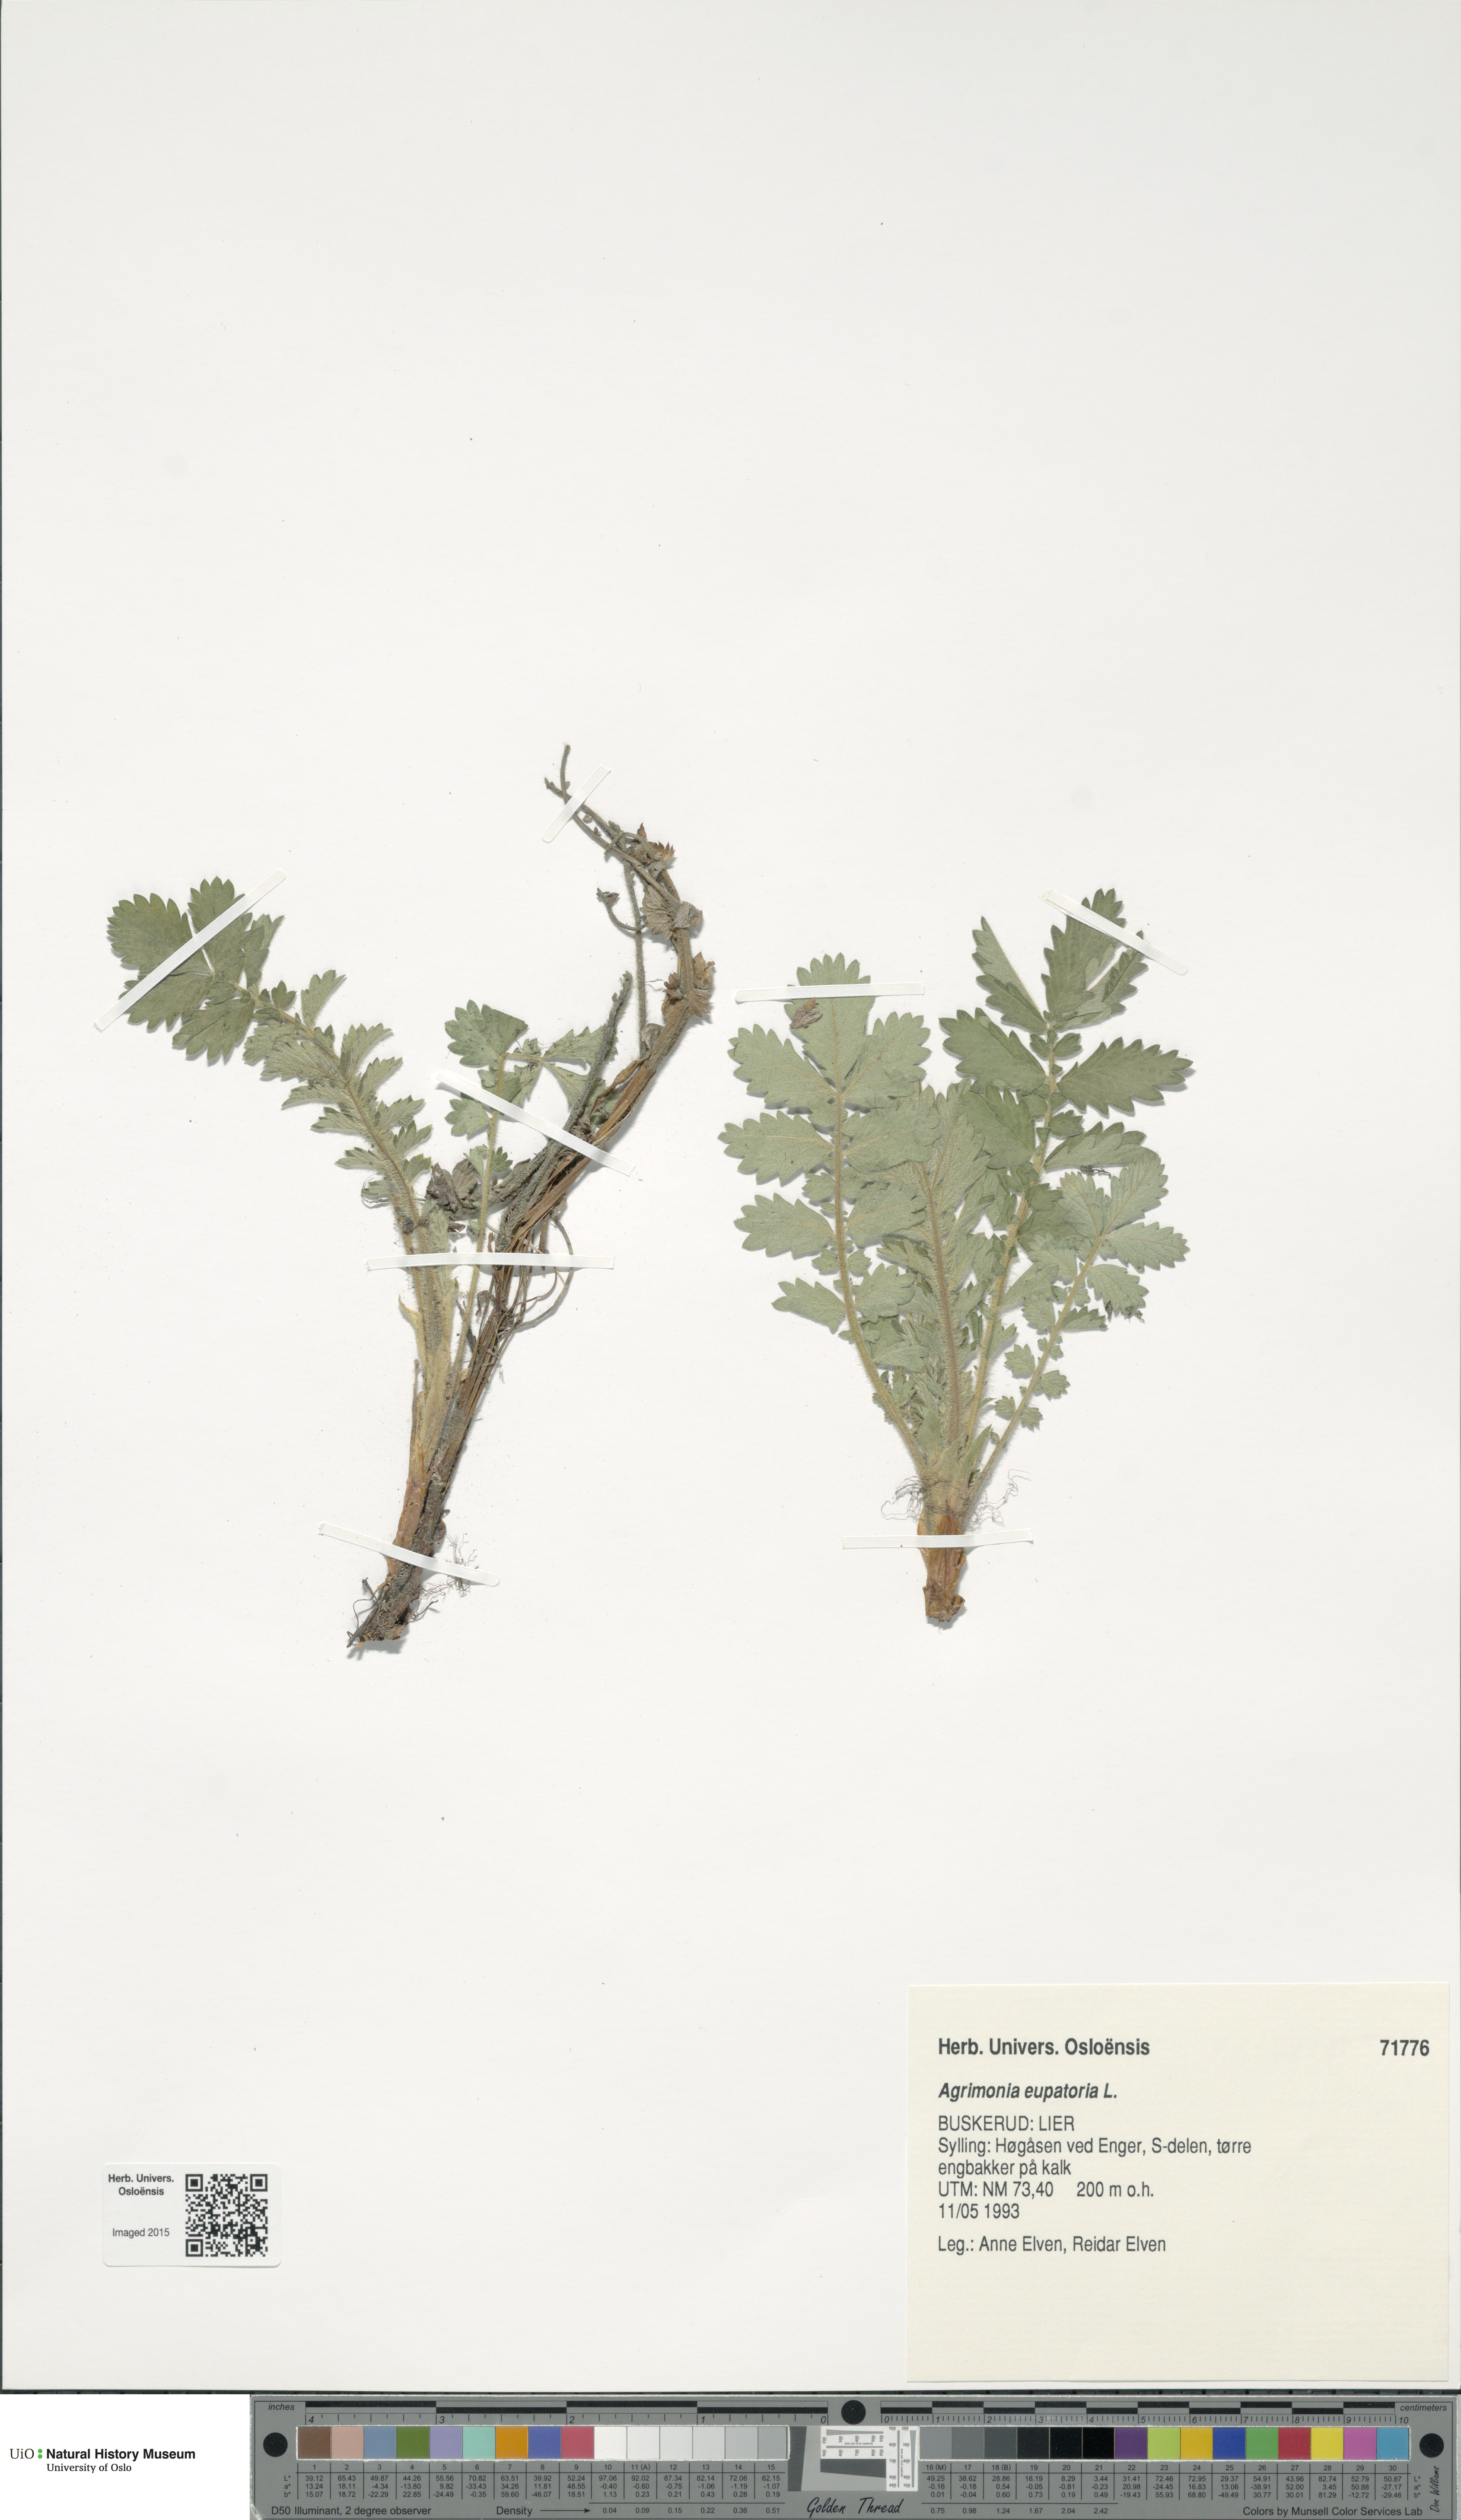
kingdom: Plantae
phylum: Tracheophyta
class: Magnoliopsida
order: Rosales
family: Rosaceae
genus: Agrimonia
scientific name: Agrimonia eupatoria
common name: Agrimony
